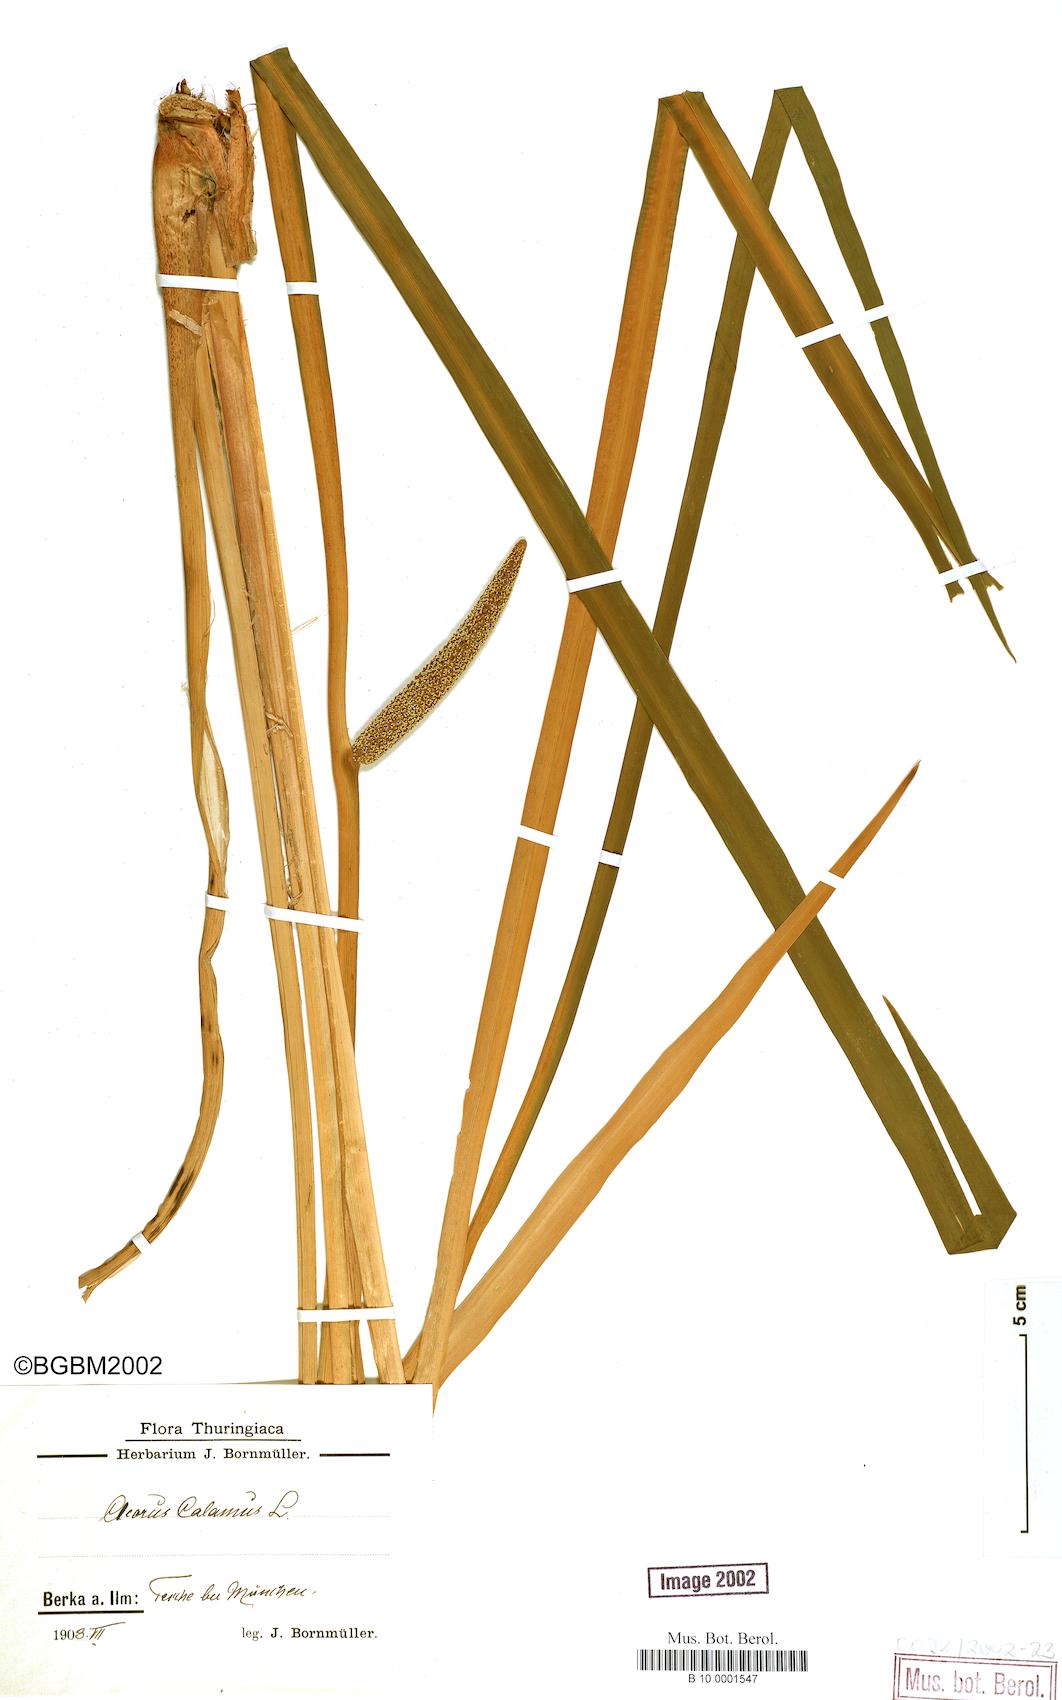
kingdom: Plantae
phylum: Tracheophyta
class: Liliopsida
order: Acorales
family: Acoraceae
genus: Acorus
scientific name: Acorus calamus
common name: Sweet-flag
